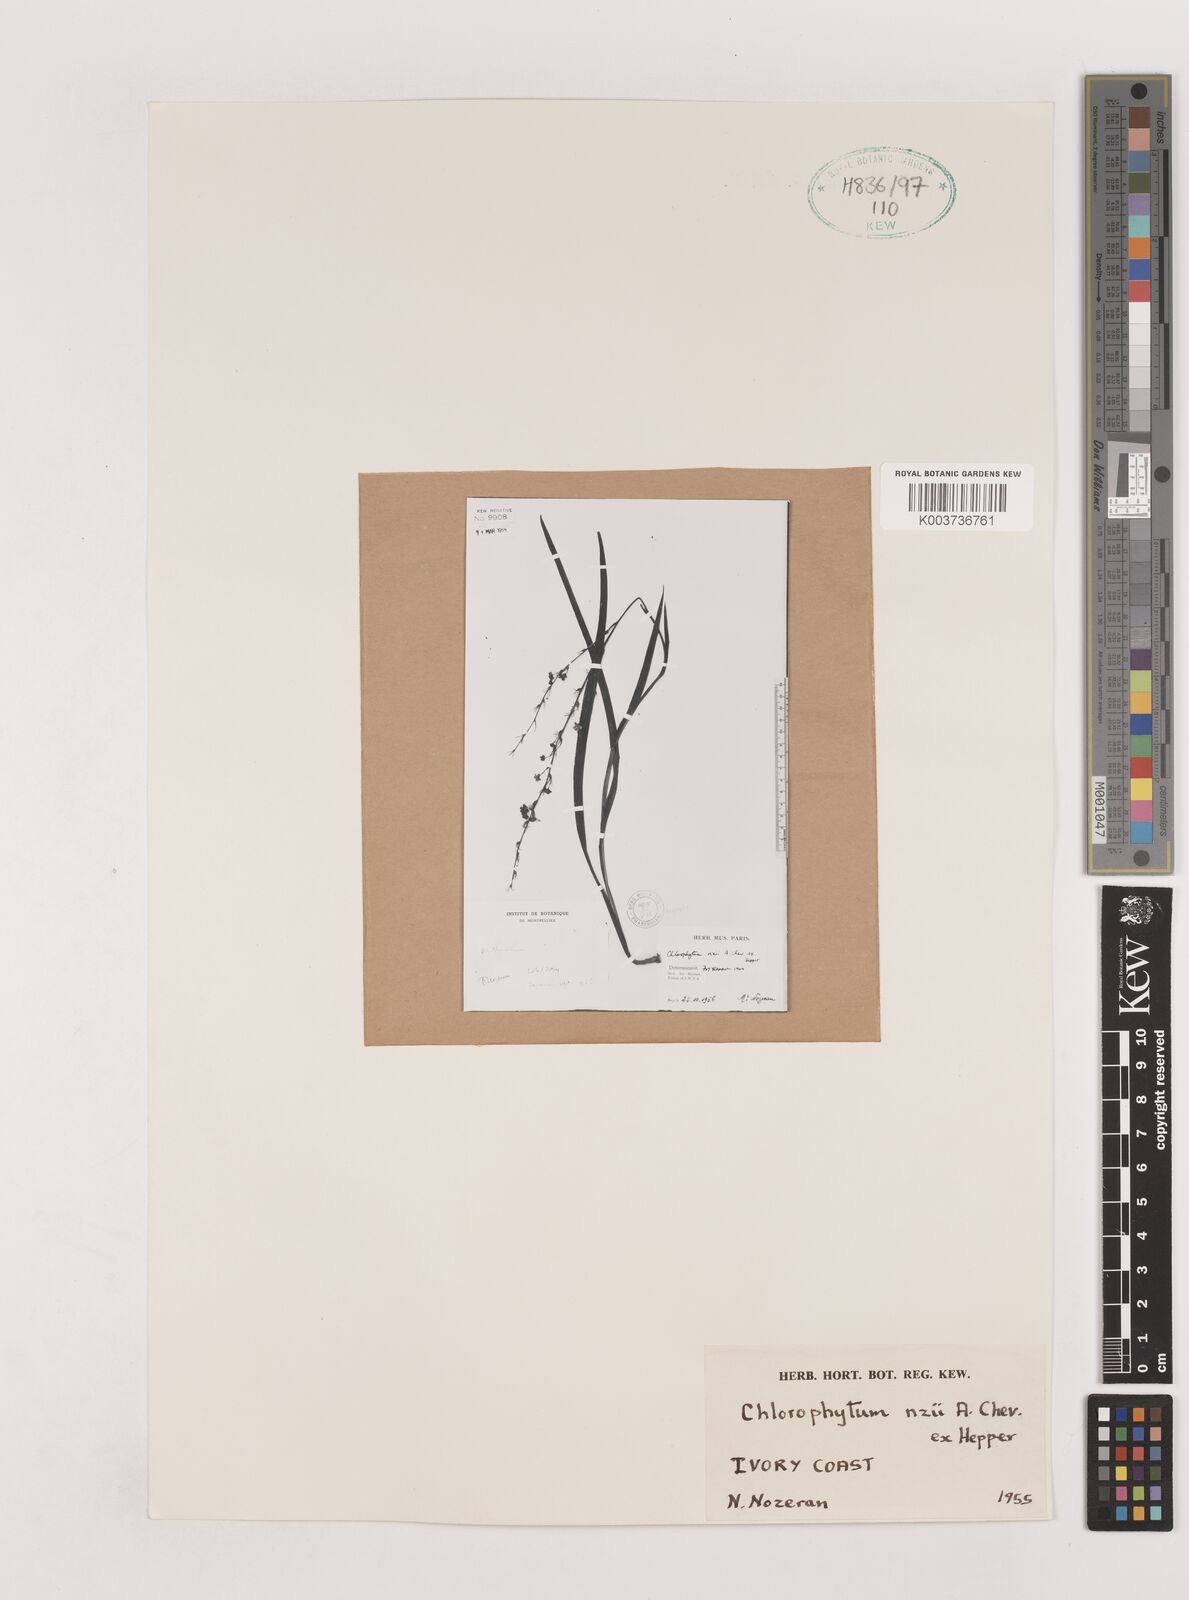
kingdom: Plantae
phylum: Tracheophyta
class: Liliopsida
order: Asparagales
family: Asparagaceae
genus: Chlorophytum
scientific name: Chlorophytum nzii
